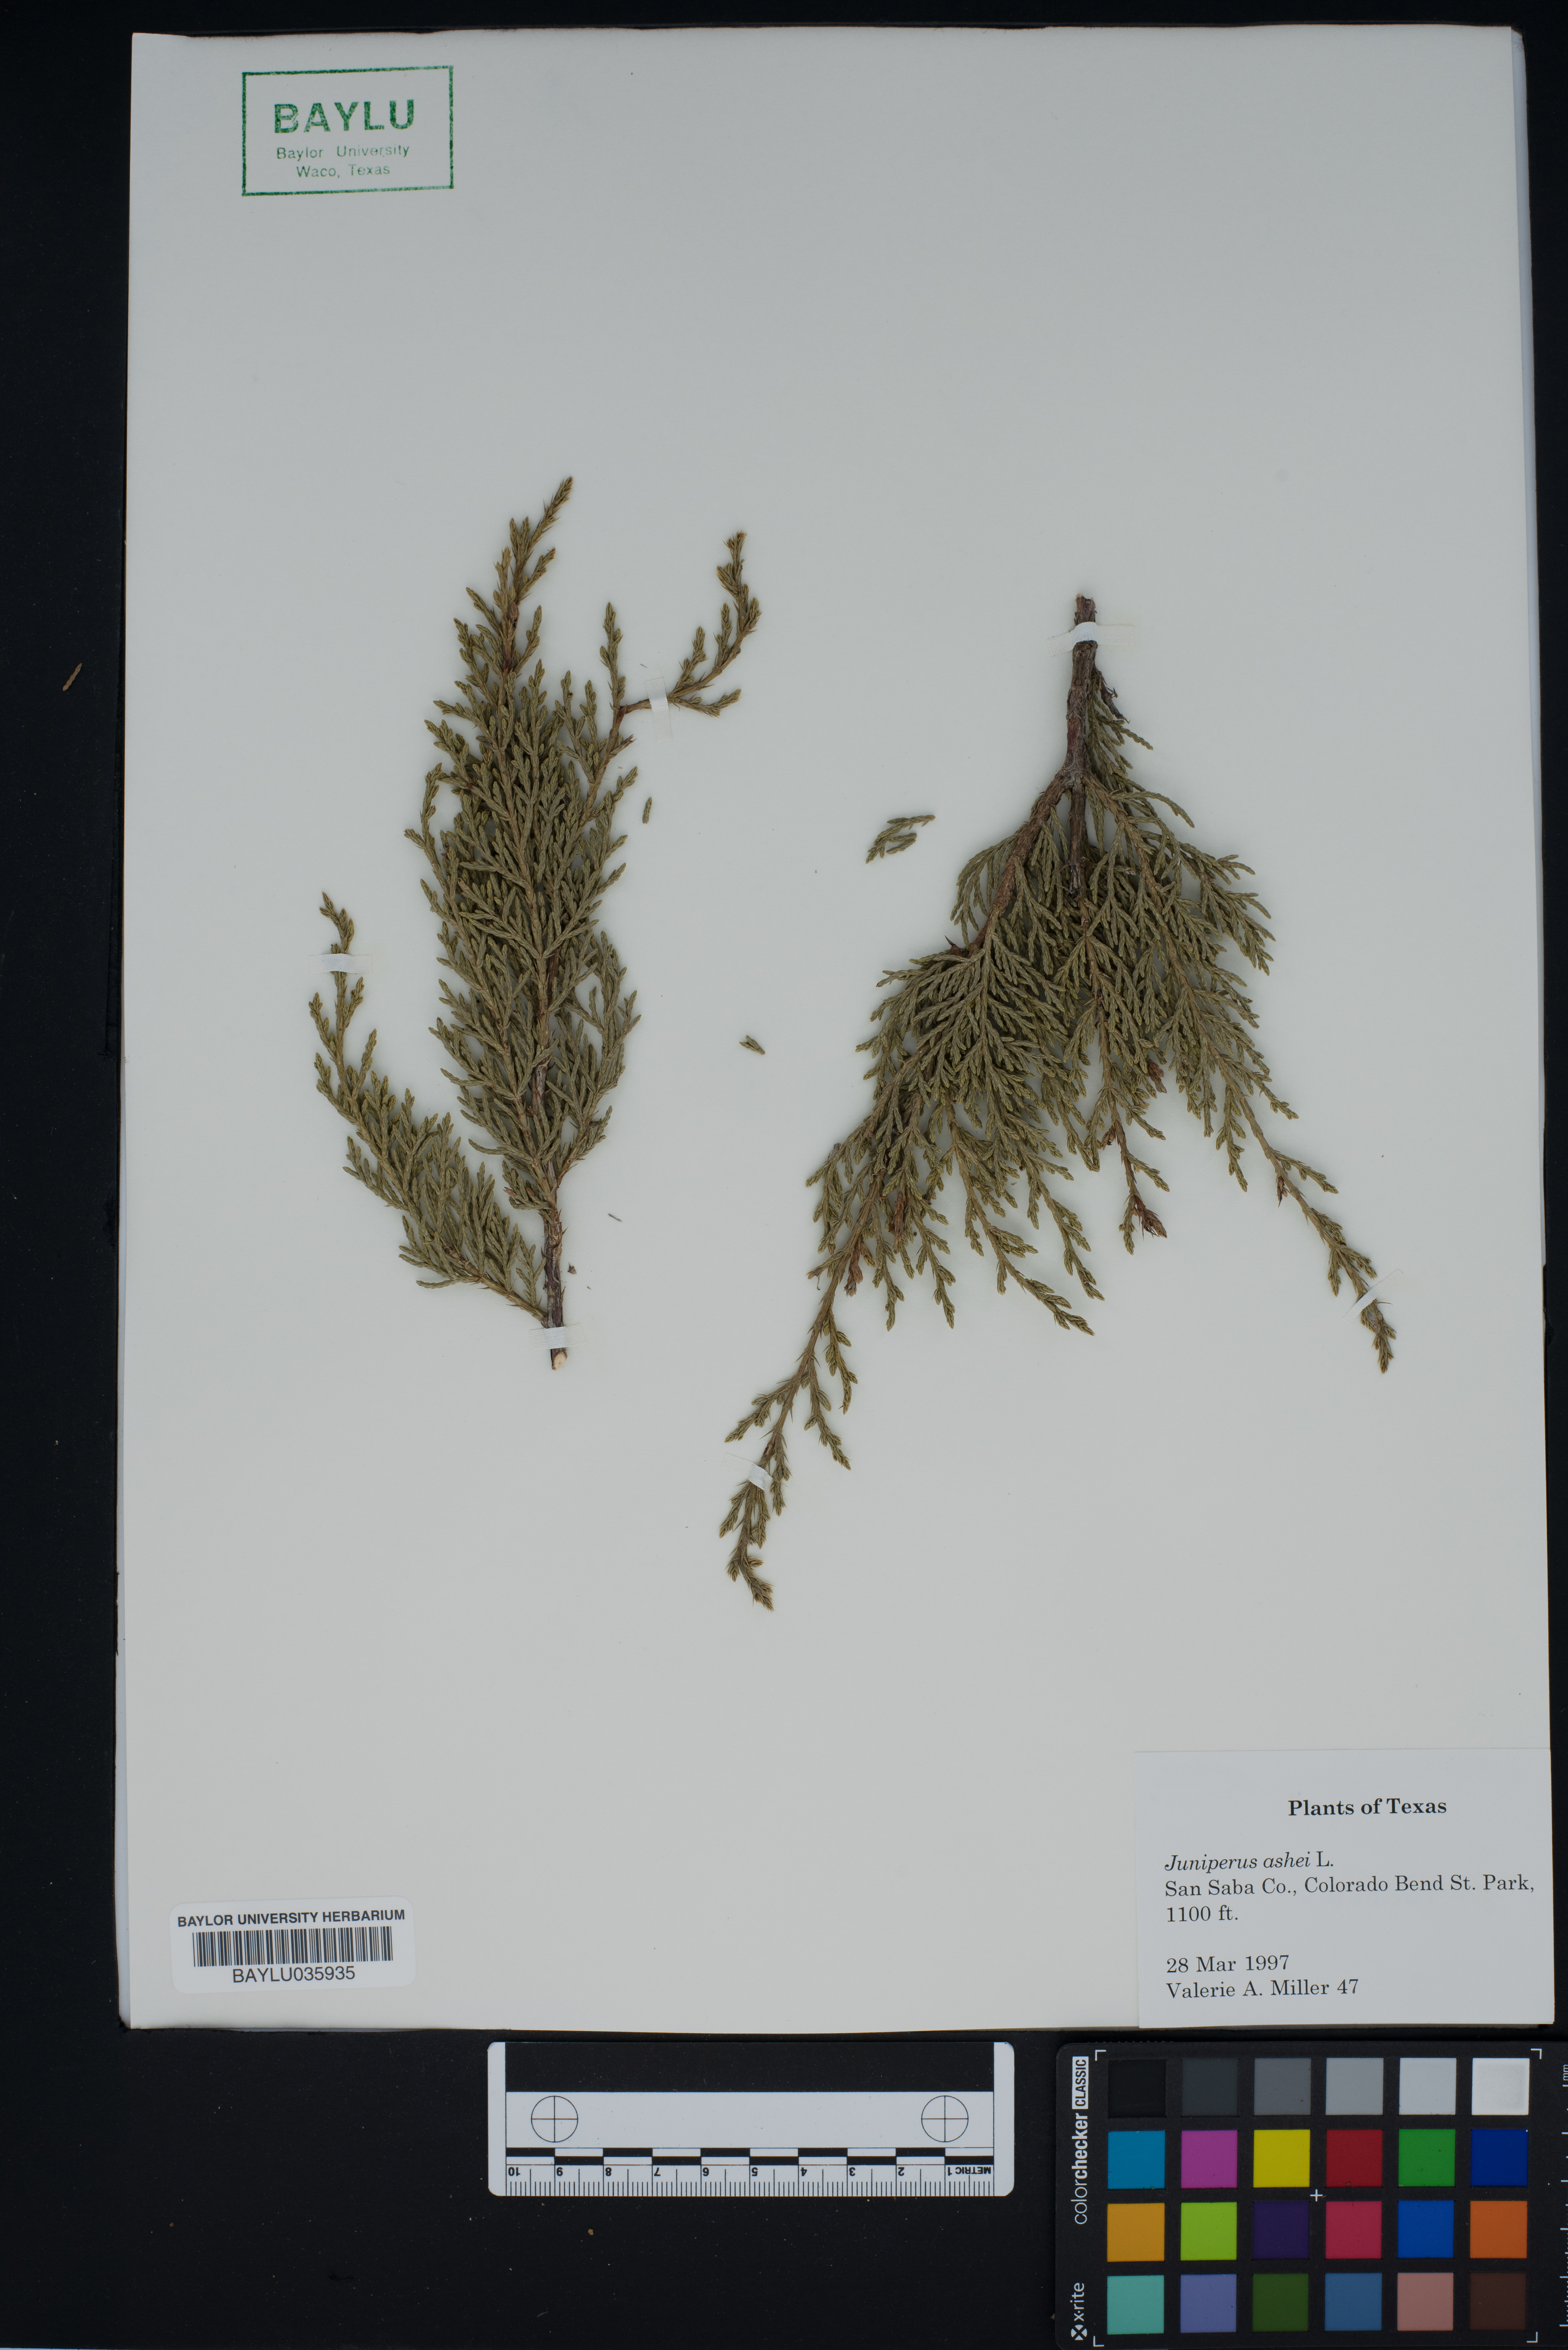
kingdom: Plantae
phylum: Tracheophyta
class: Pinopsida
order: Pinales
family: Cupressaceae
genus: Juniperus
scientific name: Juniperus ashei
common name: Mexican juniper
